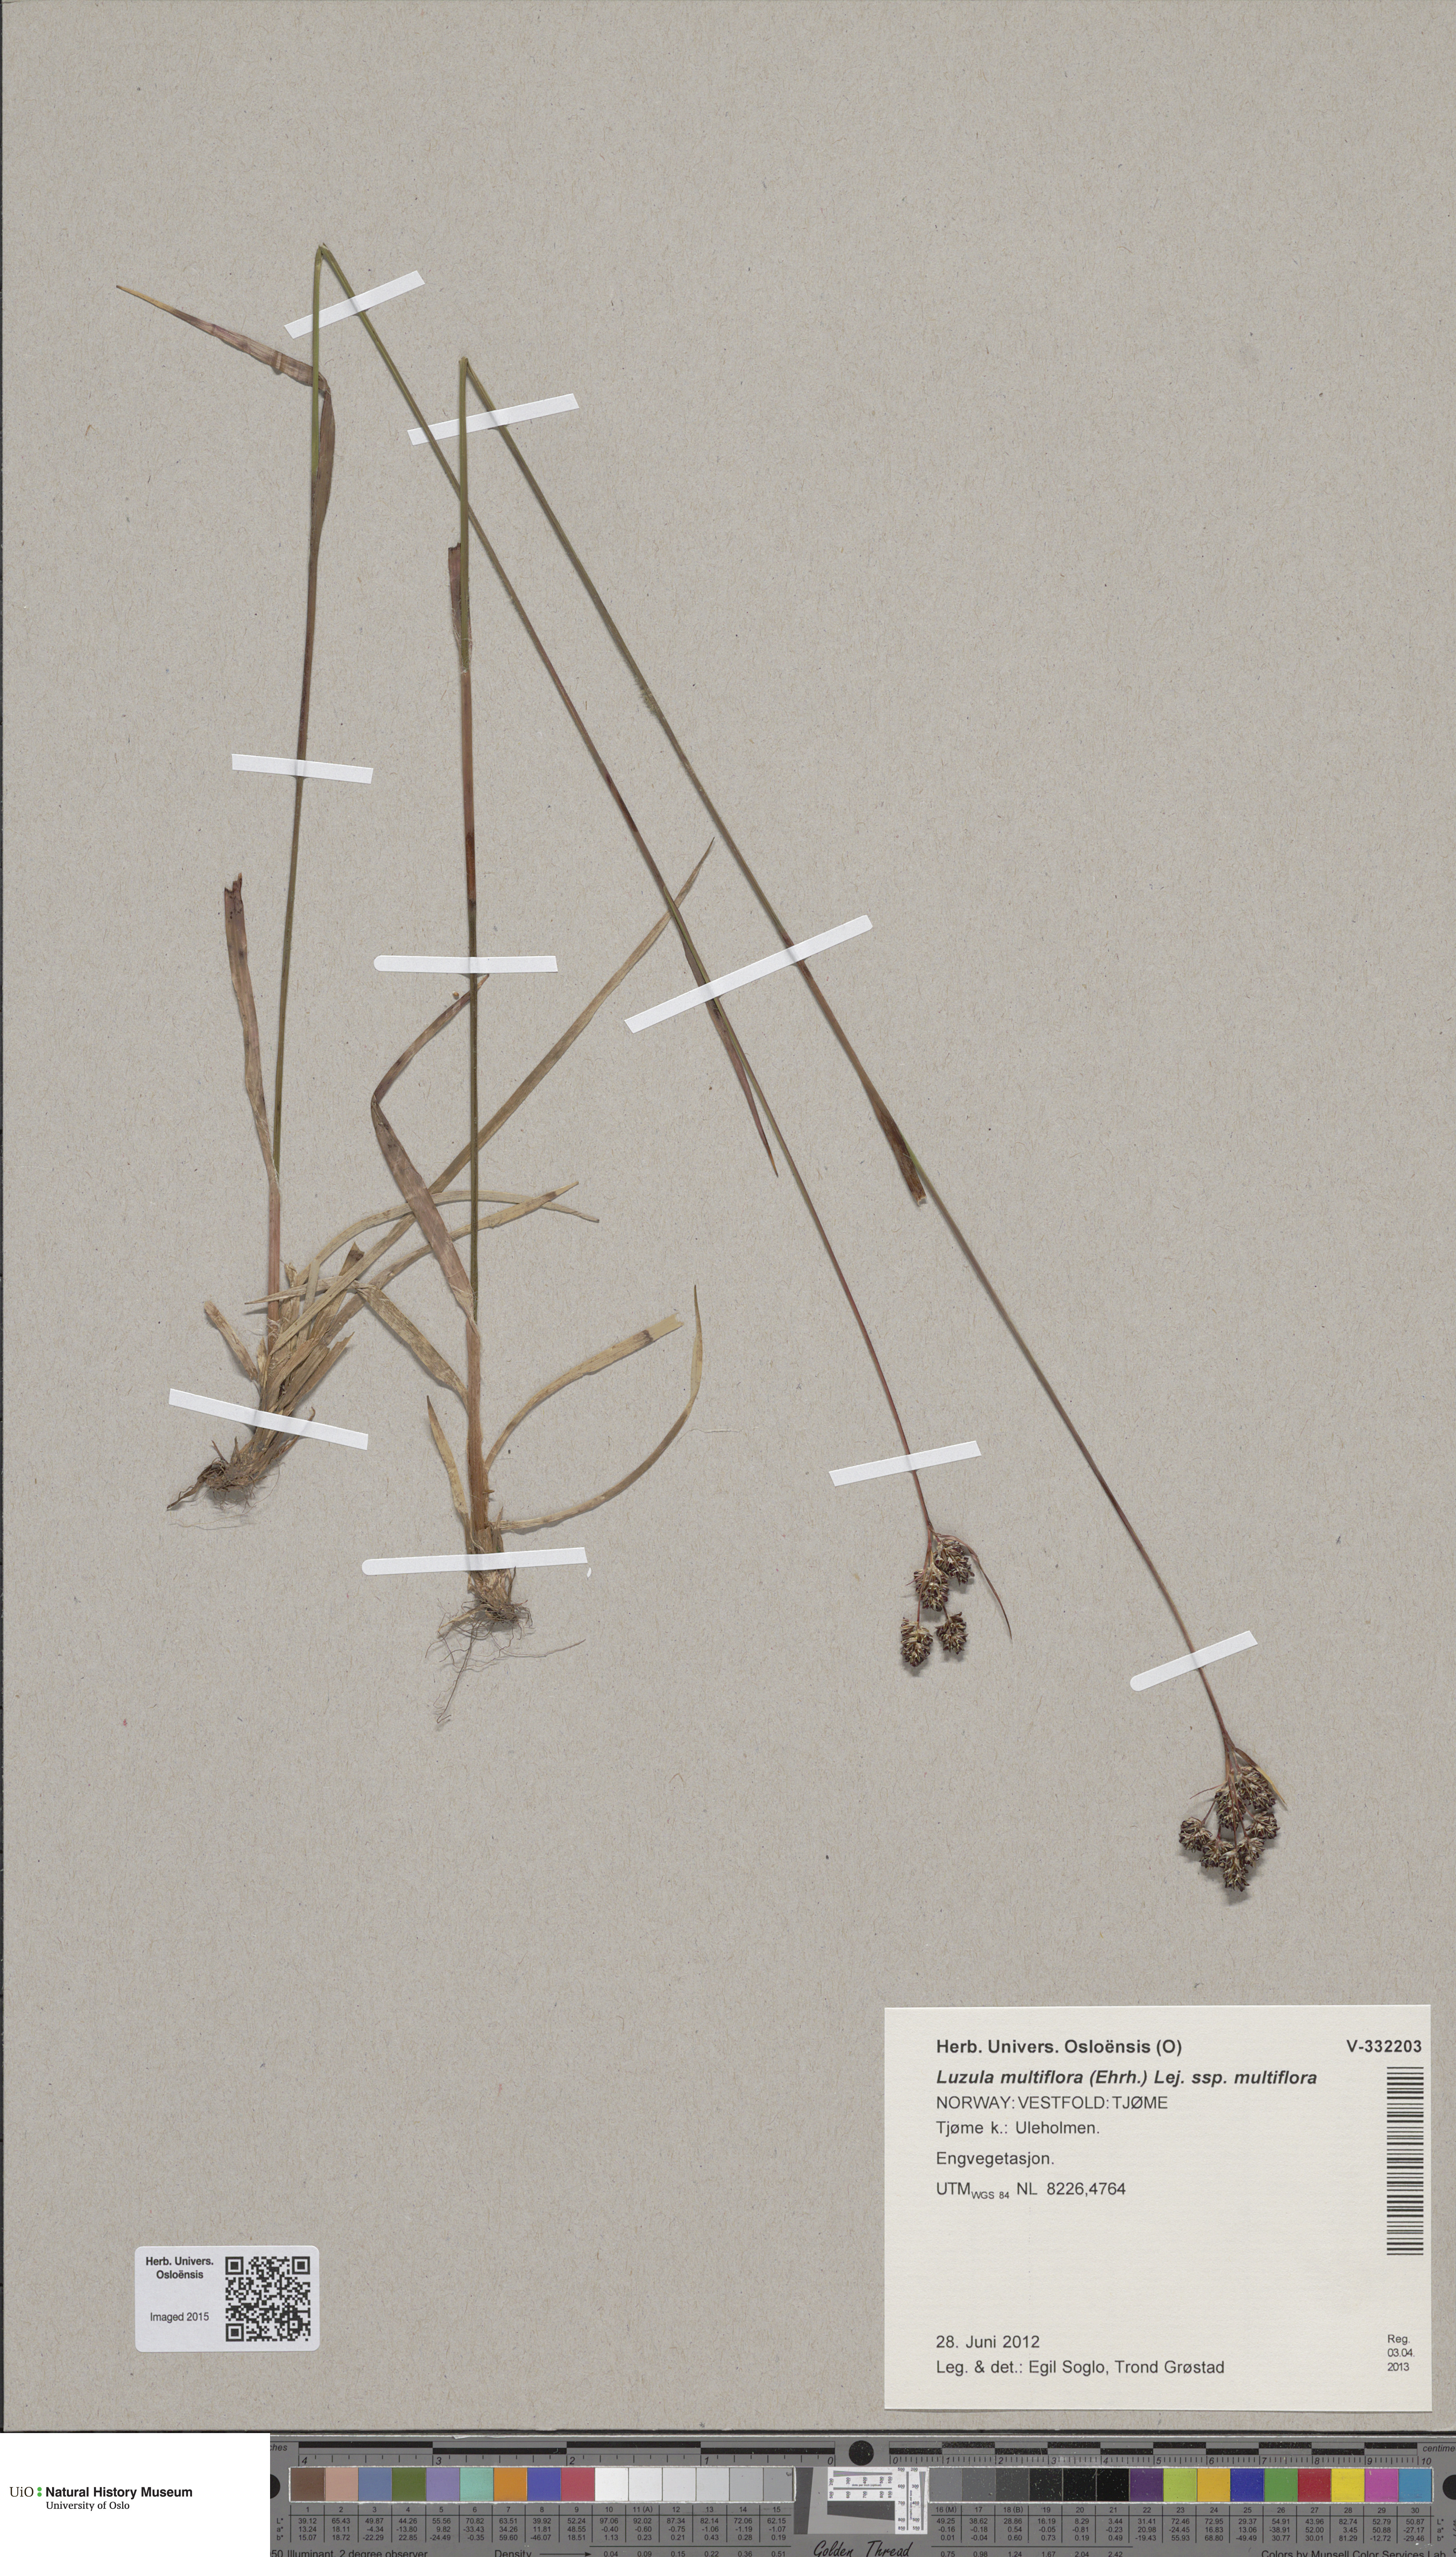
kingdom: Plantae
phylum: Tracheophyta
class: Liliopsida
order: Poales
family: Juncaceae
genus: Luzula
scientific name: Luzula multiflora
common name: Heath wood-rush
